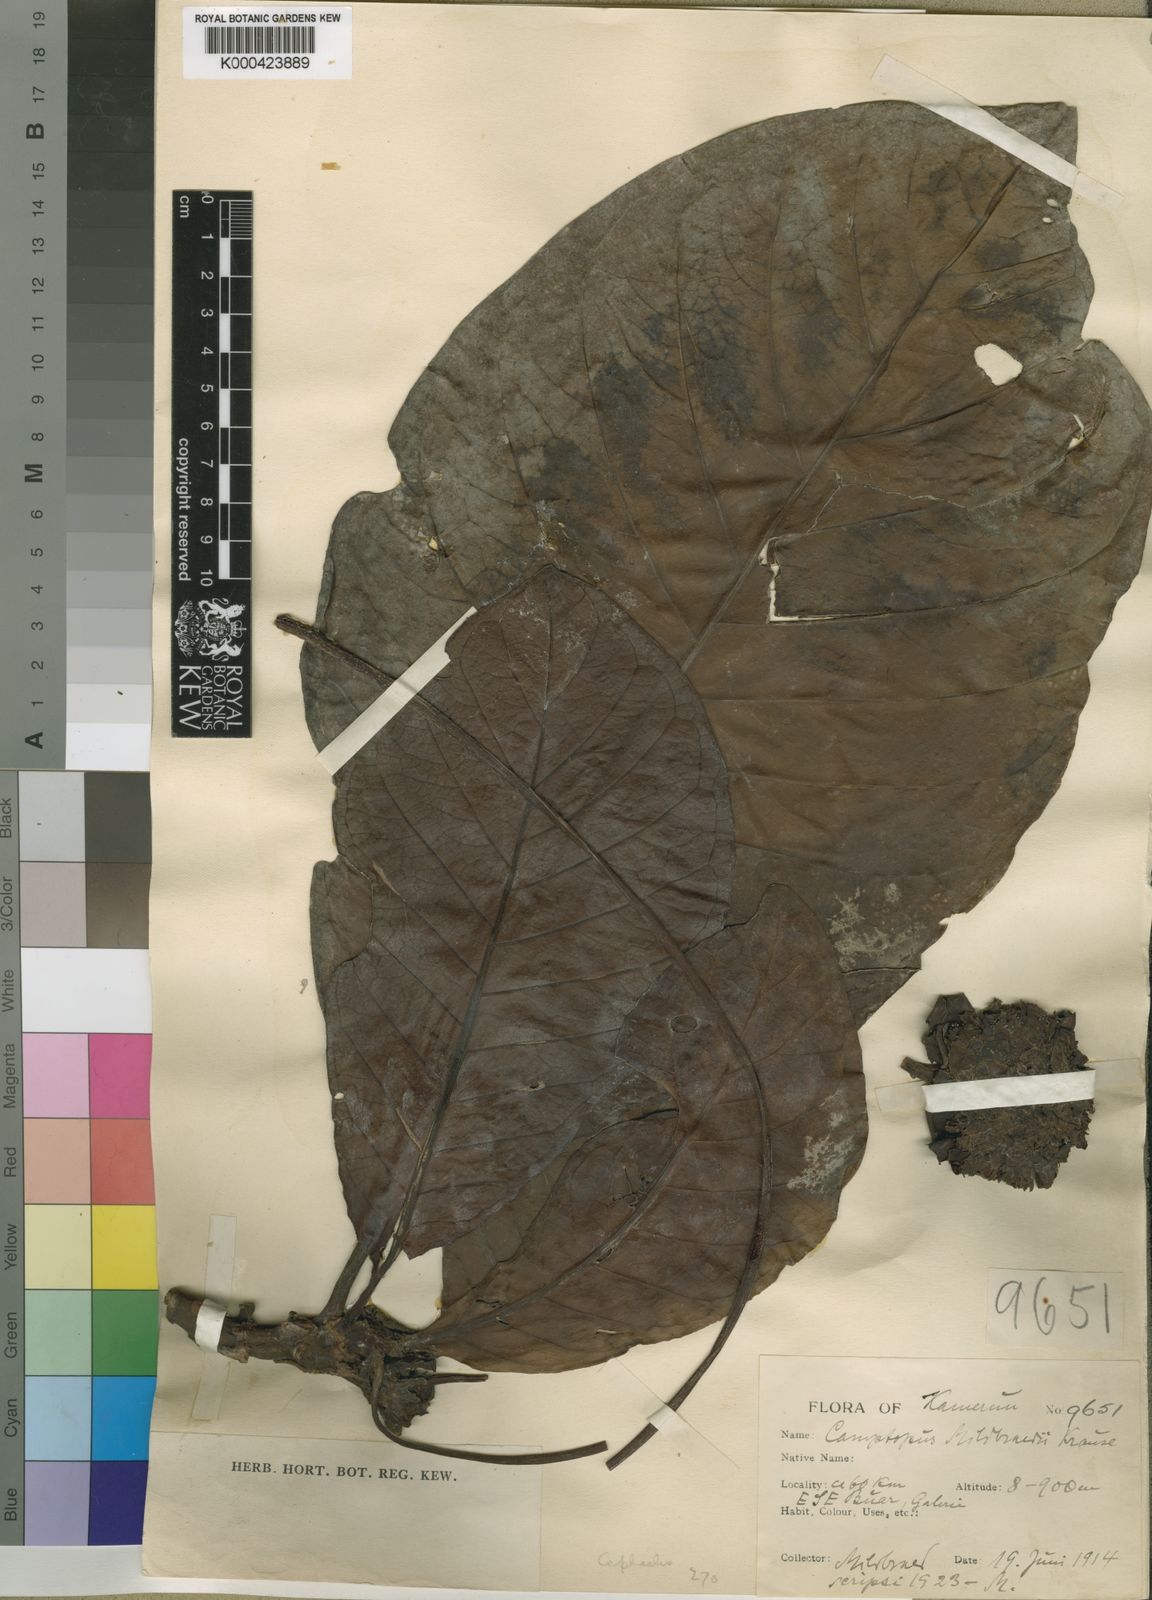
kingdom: Plantae
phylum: Tracheophyta
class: Magnoliopsida
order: Gentianales
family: Rubiaceae
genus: Psychotria
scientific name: Psychotria
